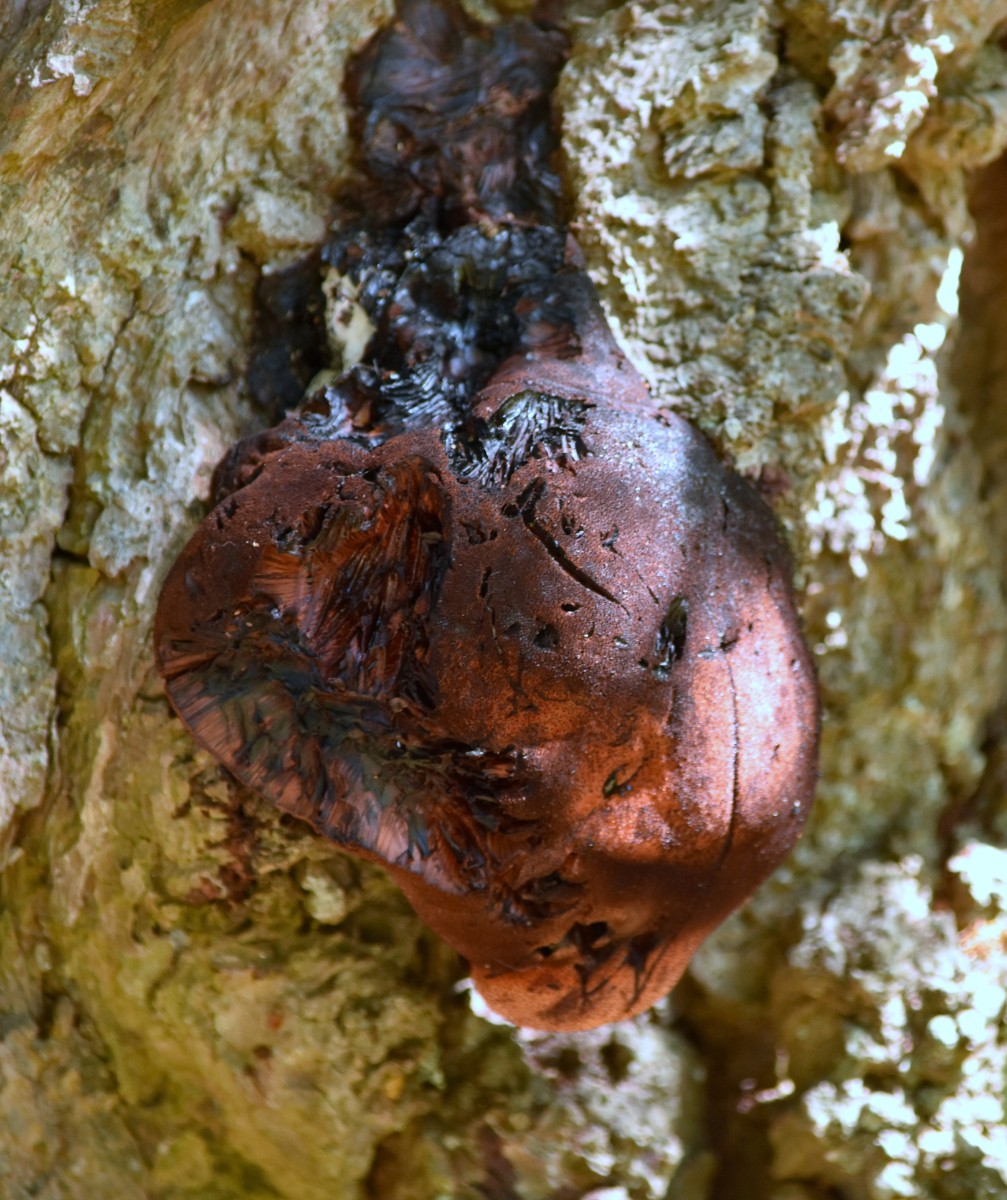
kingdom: Fungi
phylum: Basidiomycota
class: Agaricomycetes
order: Agaricales
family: Fistulinaceae
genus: Fistulina
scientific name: Fistulina hepatica
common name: oksetunge
